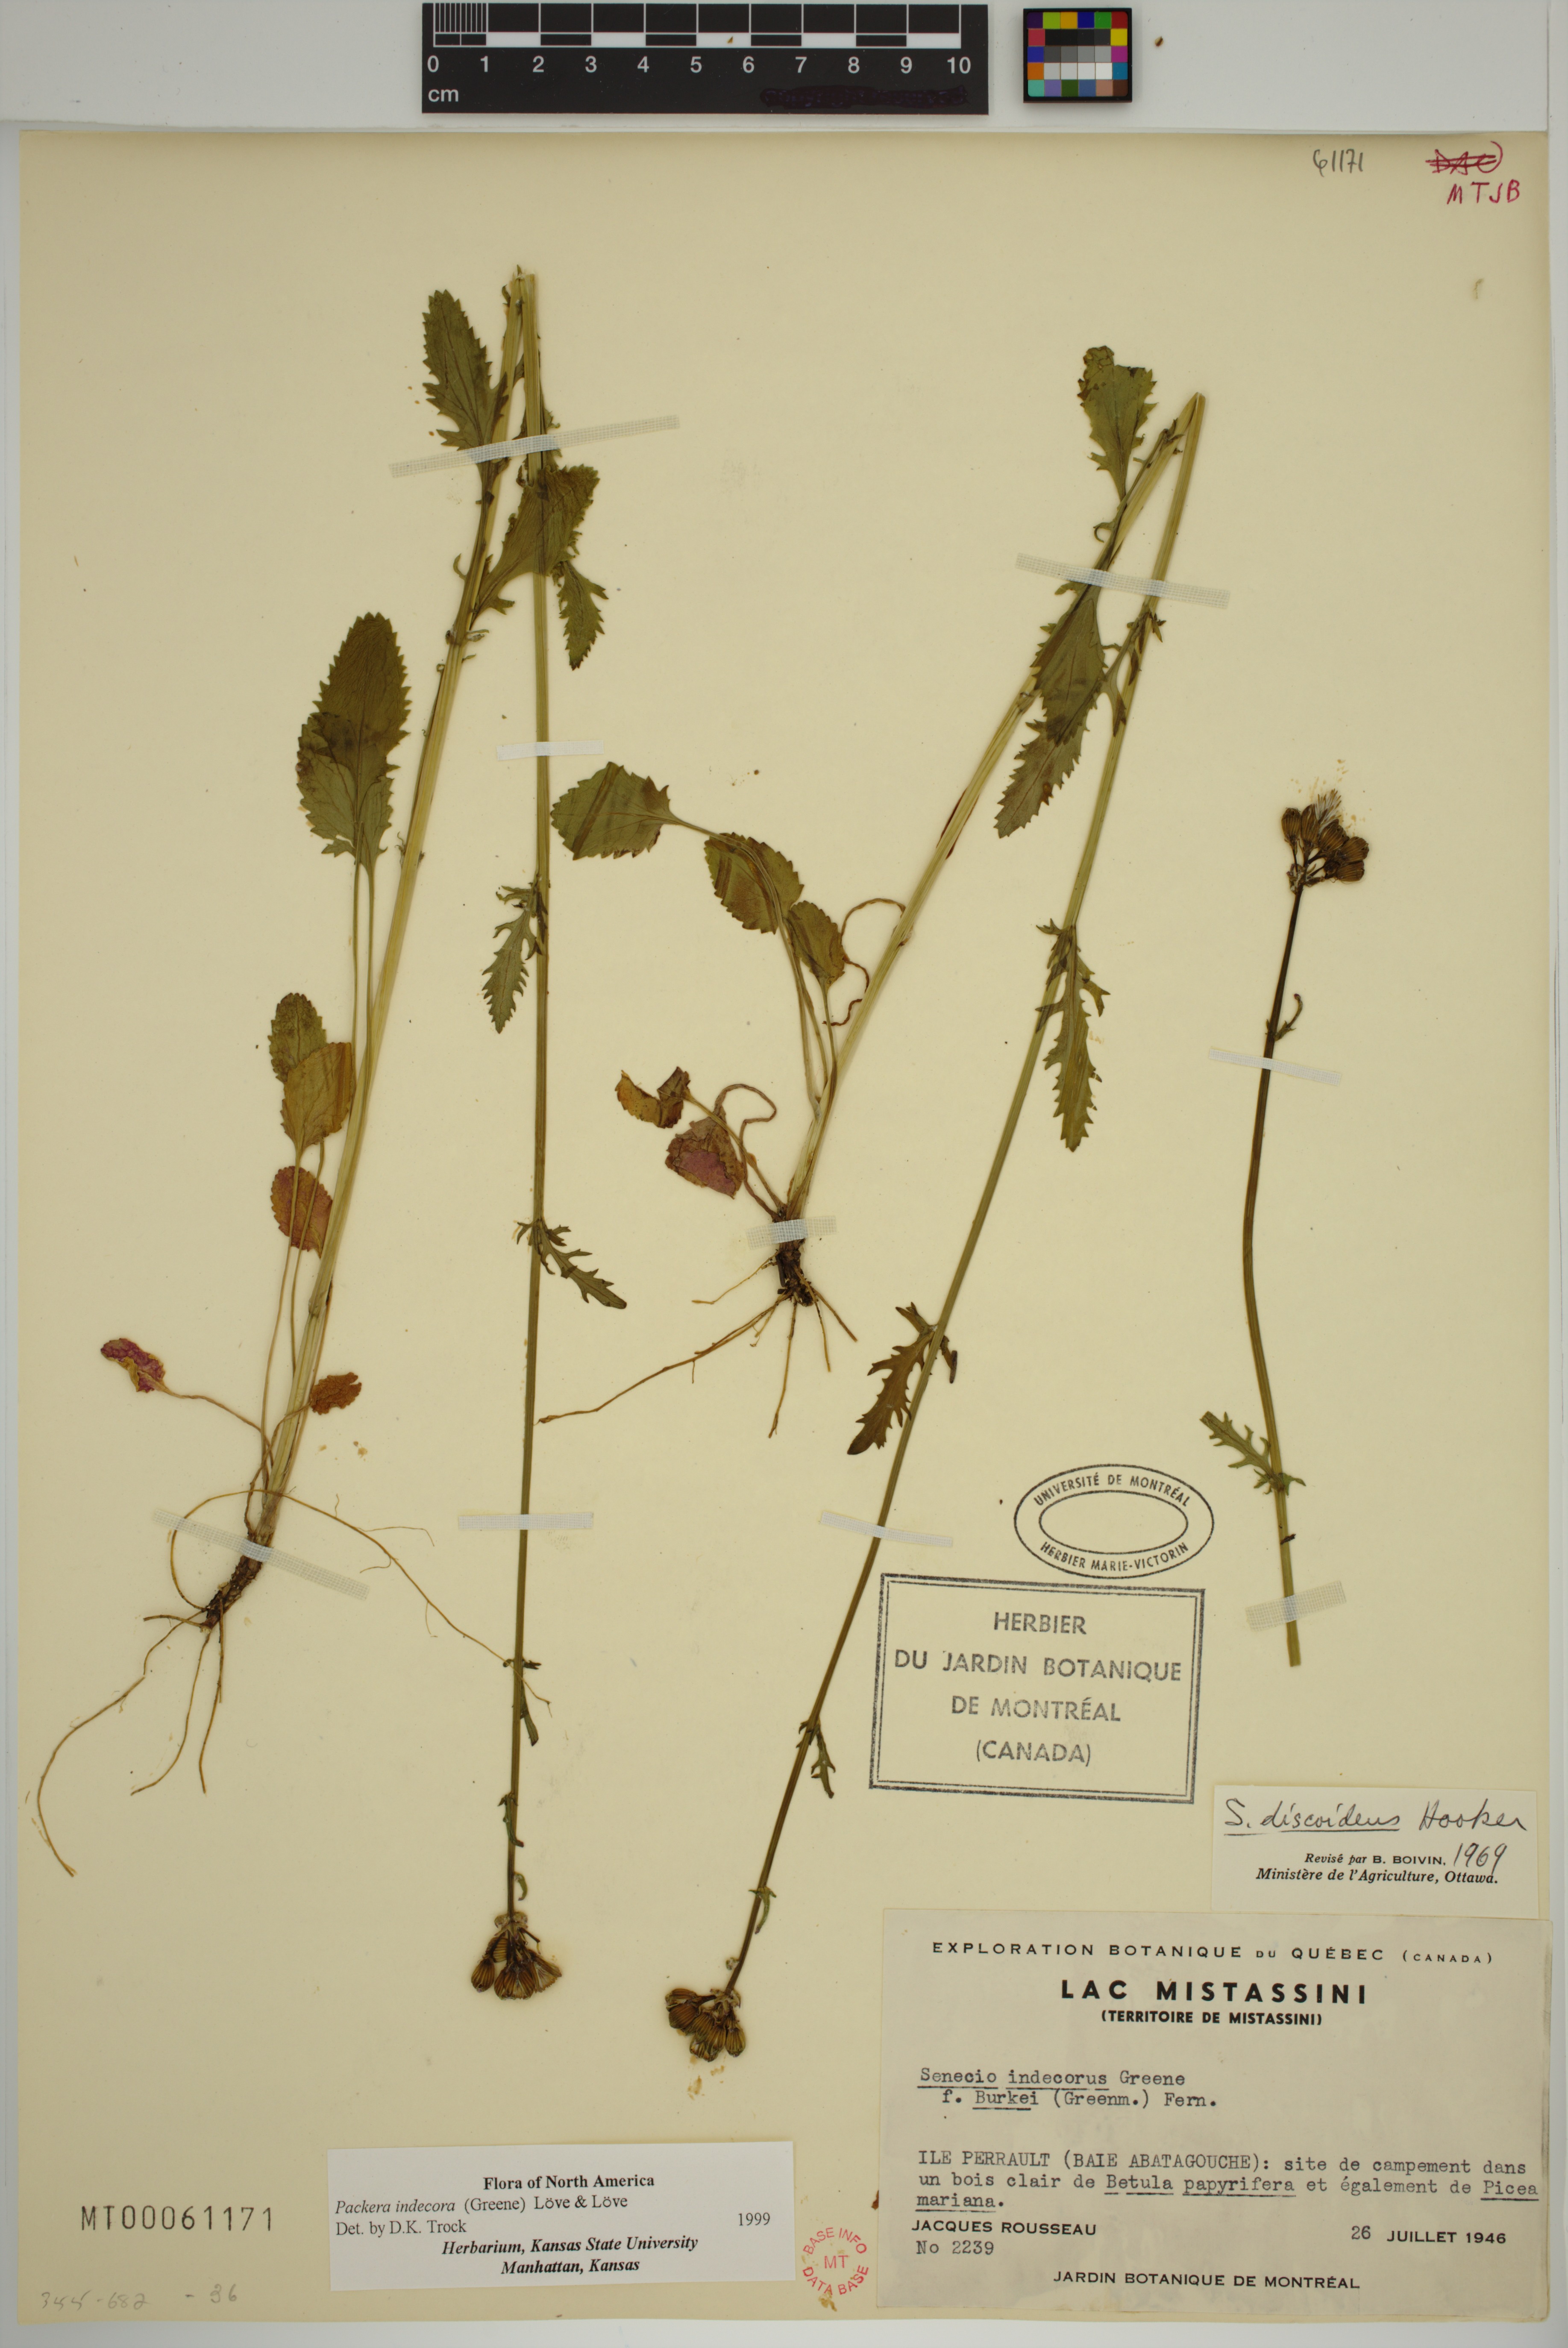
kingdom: Plantae
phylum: Tracheophyta
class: Magnoliopsida
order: Asterales
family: Asteraceae
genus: Packera
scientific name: Packera indecora
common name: Elegant groundsel
